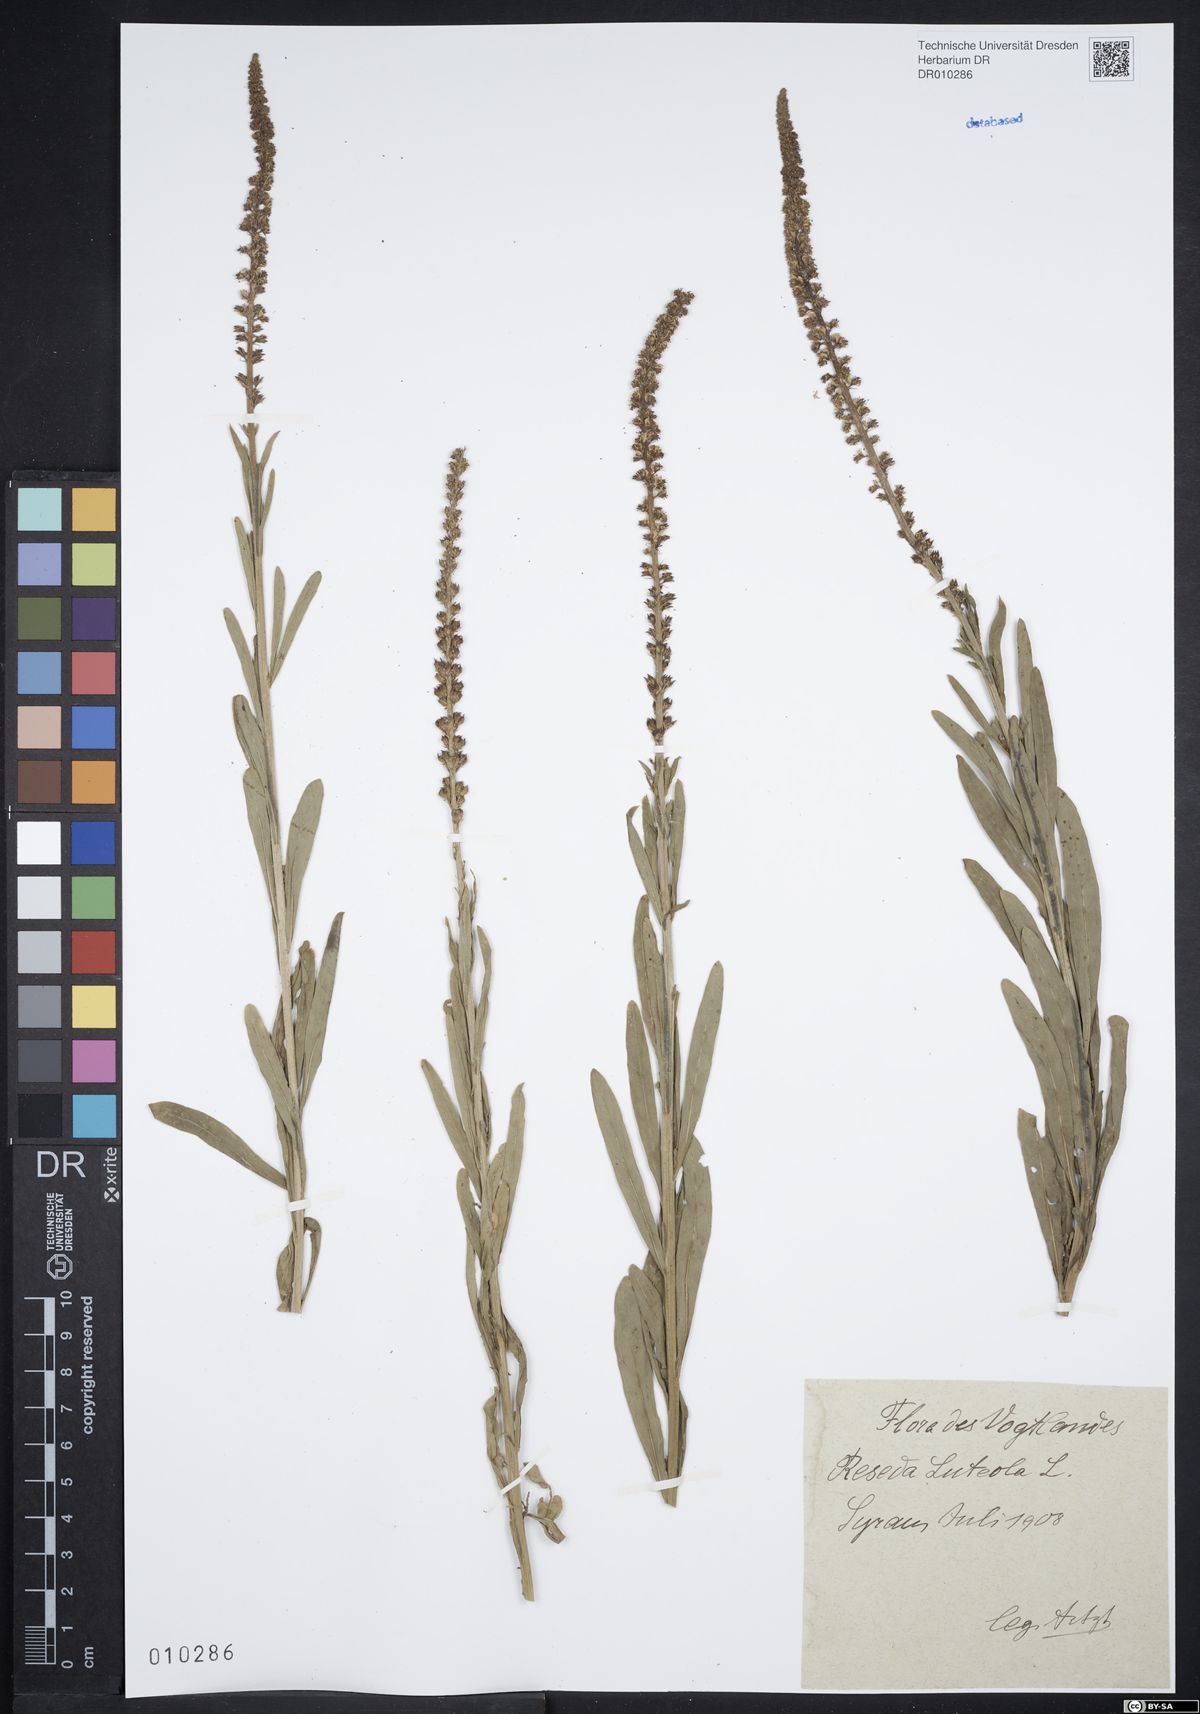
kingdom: Plantae
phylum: Tracheophyta
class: Magnoliopsida
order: Brassicales
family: Resedaceae
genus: Reseda
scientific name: Reseda luteola
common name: Weld
